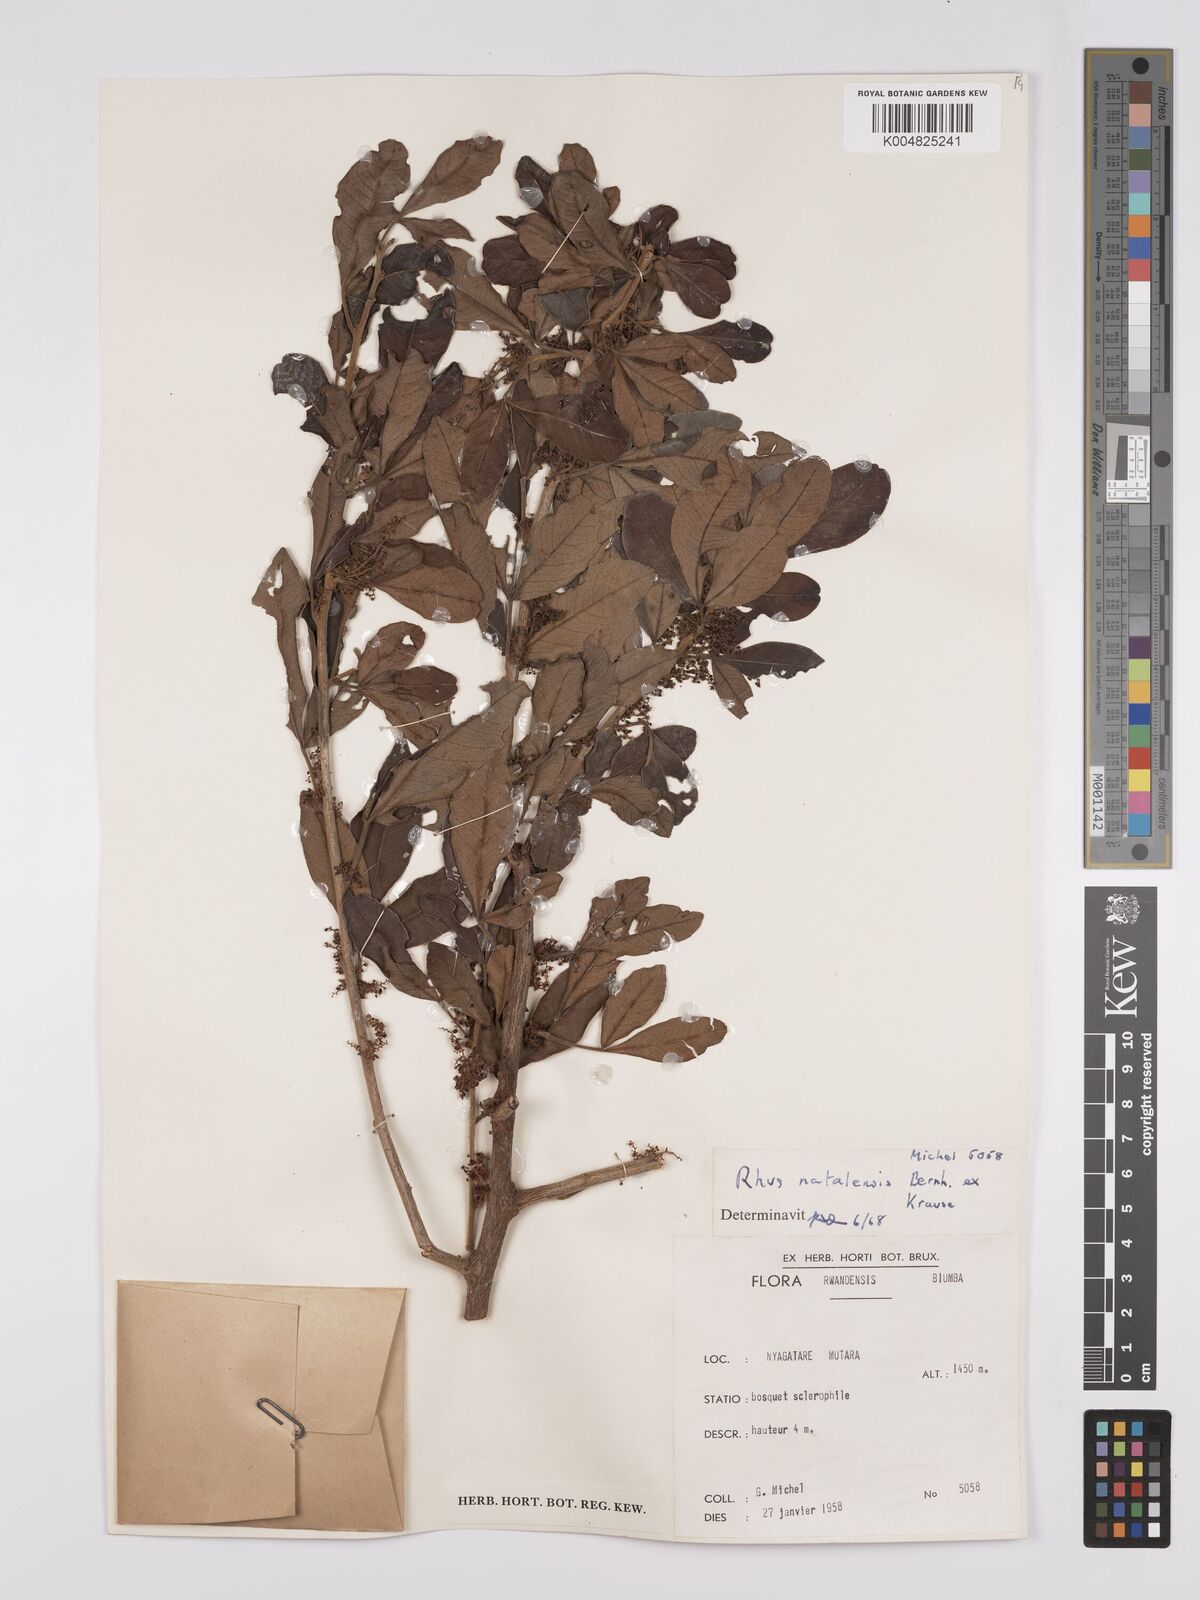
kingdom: Plantae
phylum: Tracheophyta
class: Magnoliopsida
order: Sapindales
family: Anacardiaceae
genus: Searsia
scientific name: Searsia natalensis
